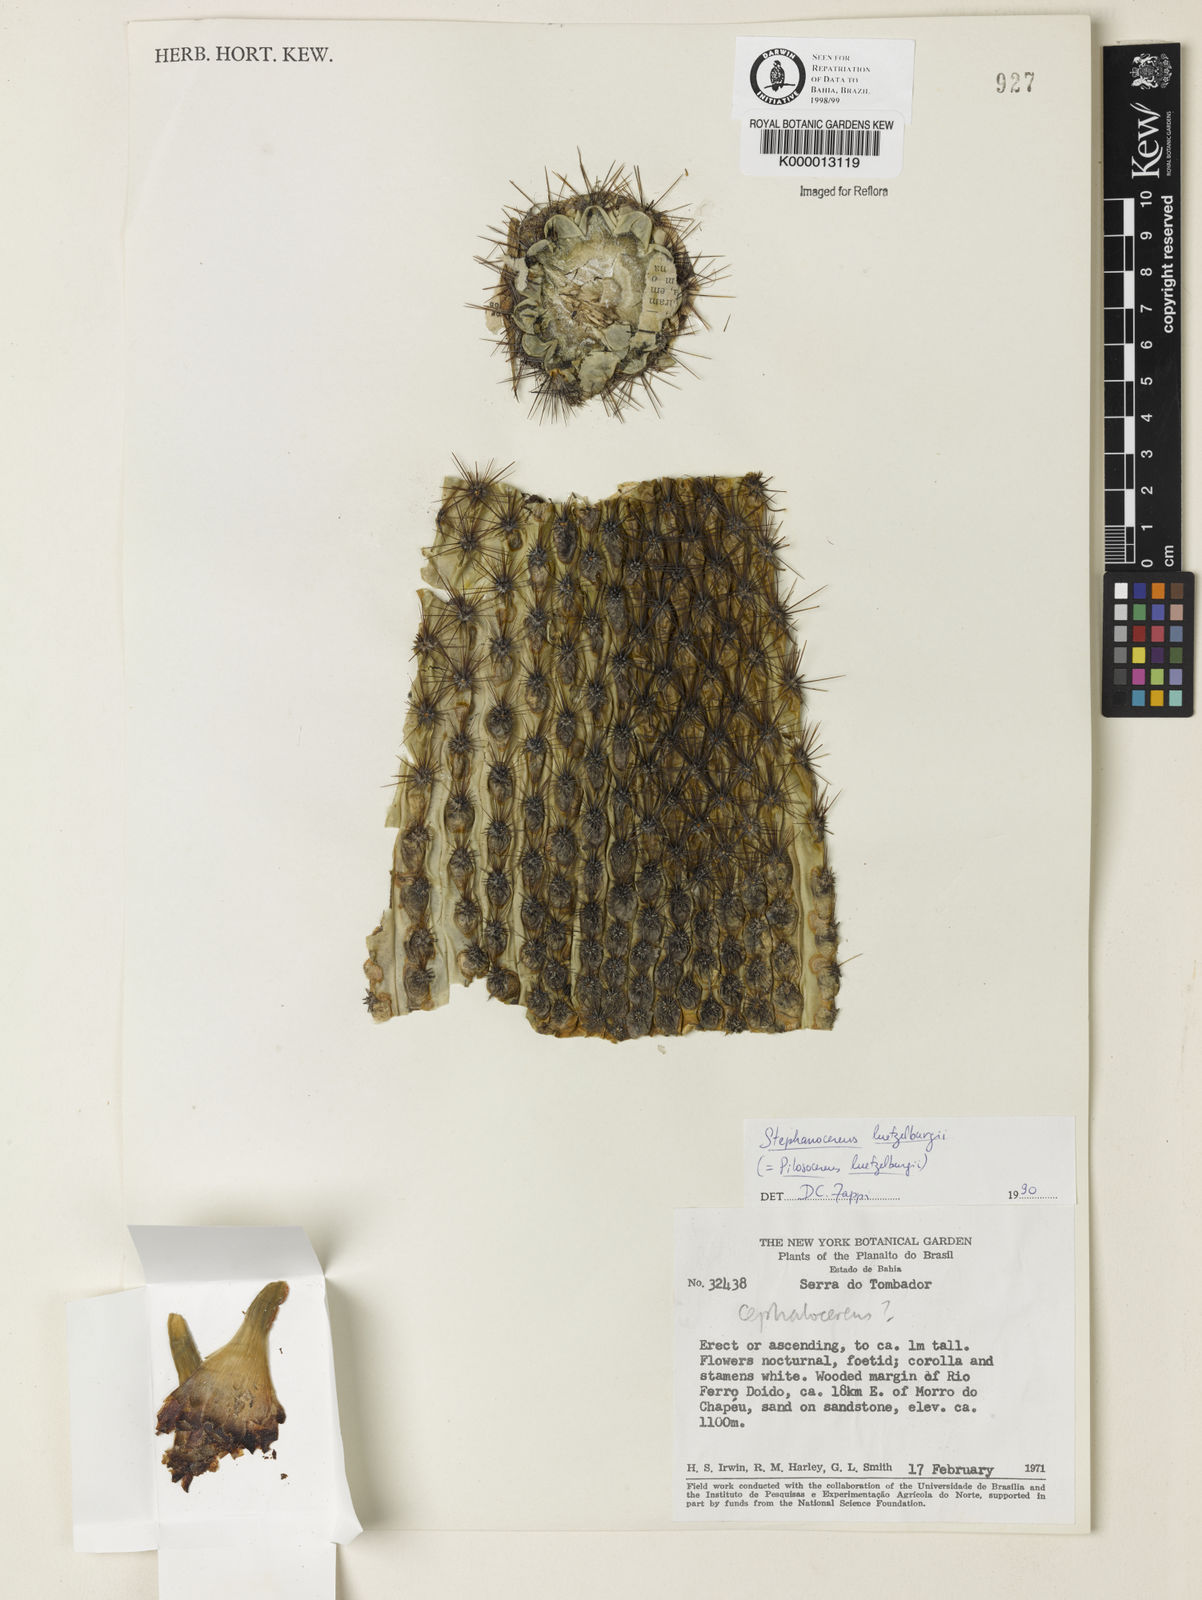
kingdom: Plantae
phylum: Tracheophyta
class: Magnoliopsida
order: Caryophyllales
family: Cactaceae
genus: Lagenosocereus
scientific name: Lagenosocereus luetzelburgii
